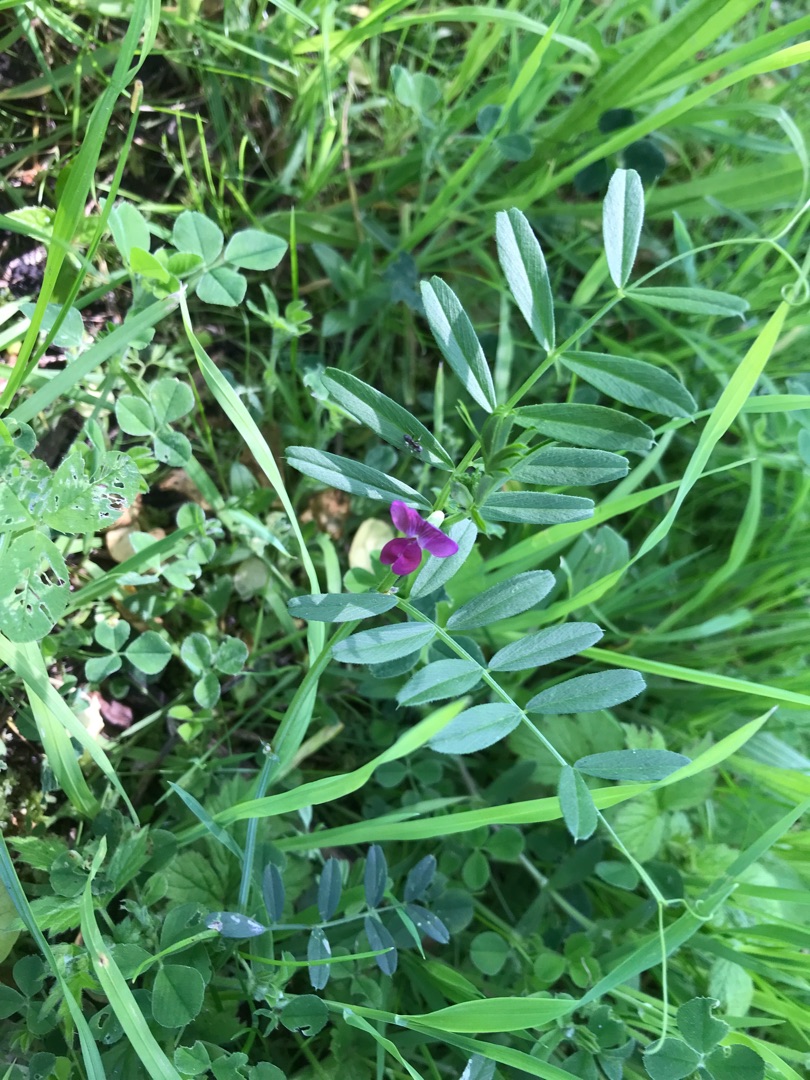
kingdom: Plantae
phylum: Tracheophyta
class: Magnoliopsida
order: Fabales
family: Fabaceae
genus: Vicia
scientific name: Vicia sativa
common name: Foder-vikke
